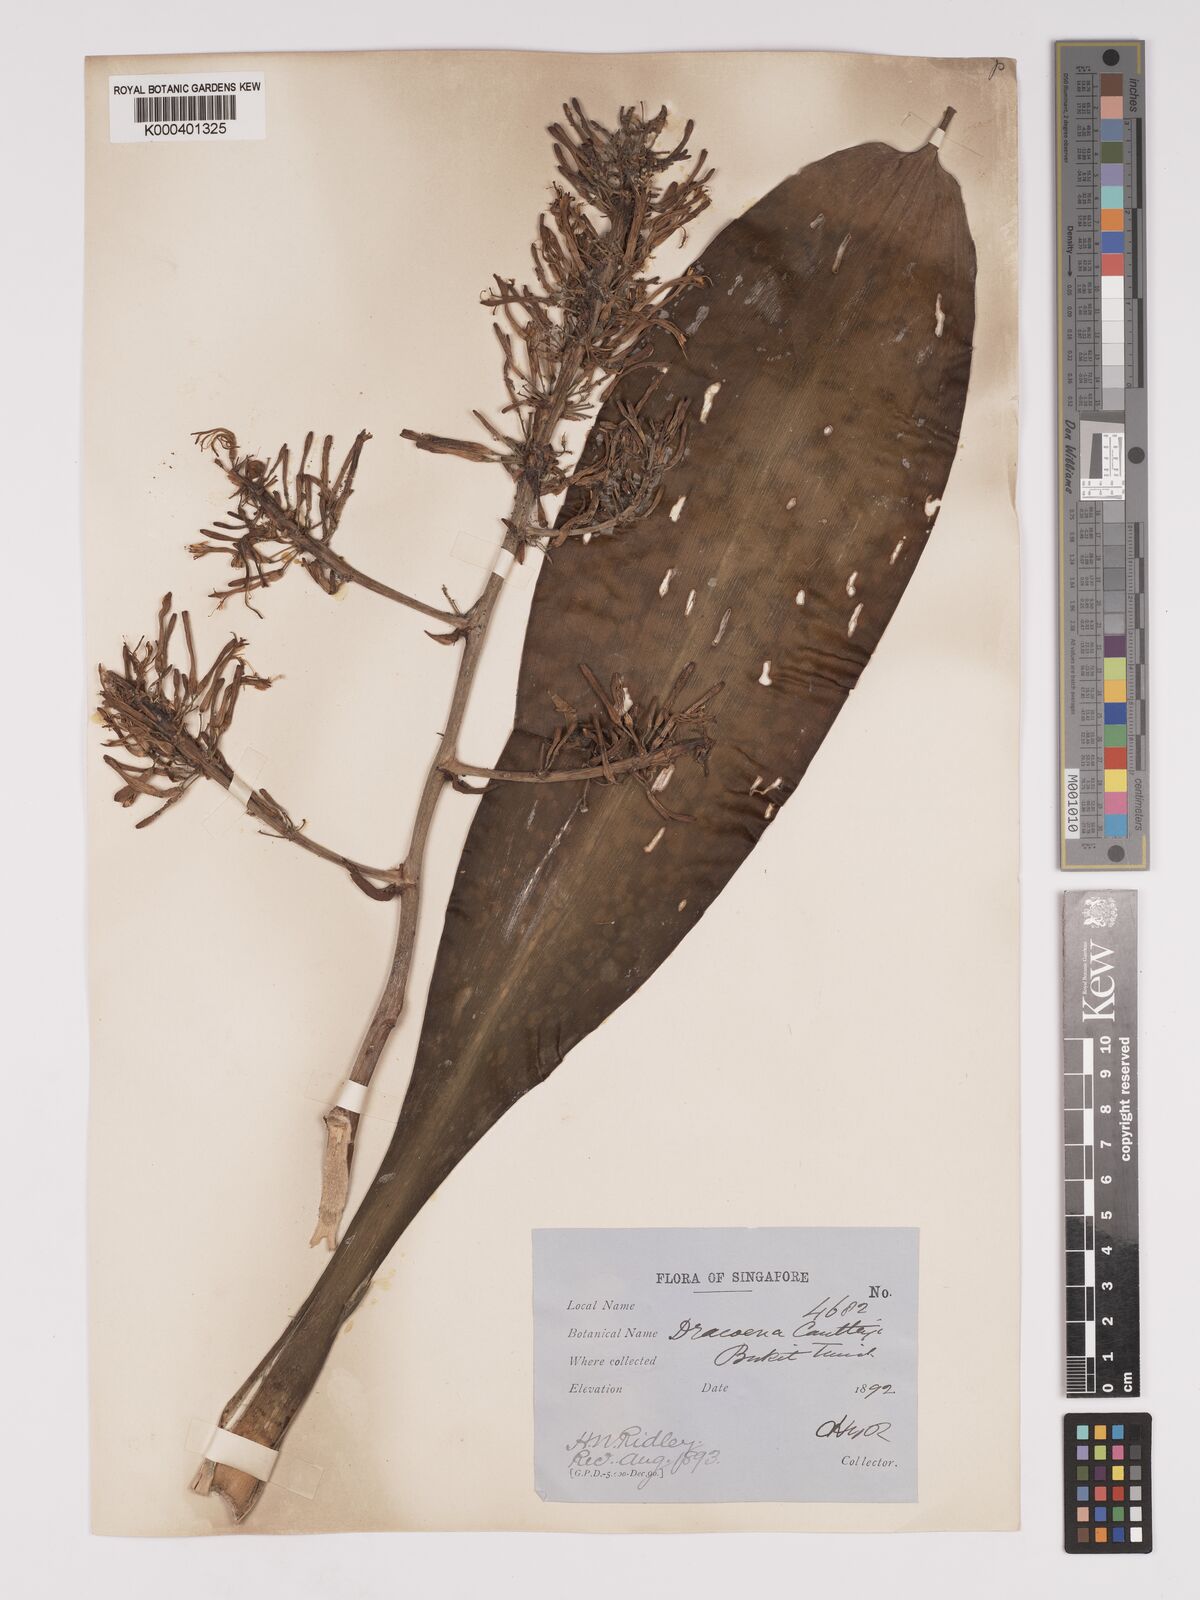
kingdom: Plantae
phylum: Tracheophyta
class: Liliopsida
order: Asparagales
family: Asparagaceae
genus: Dracaena
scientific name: Dracaena
